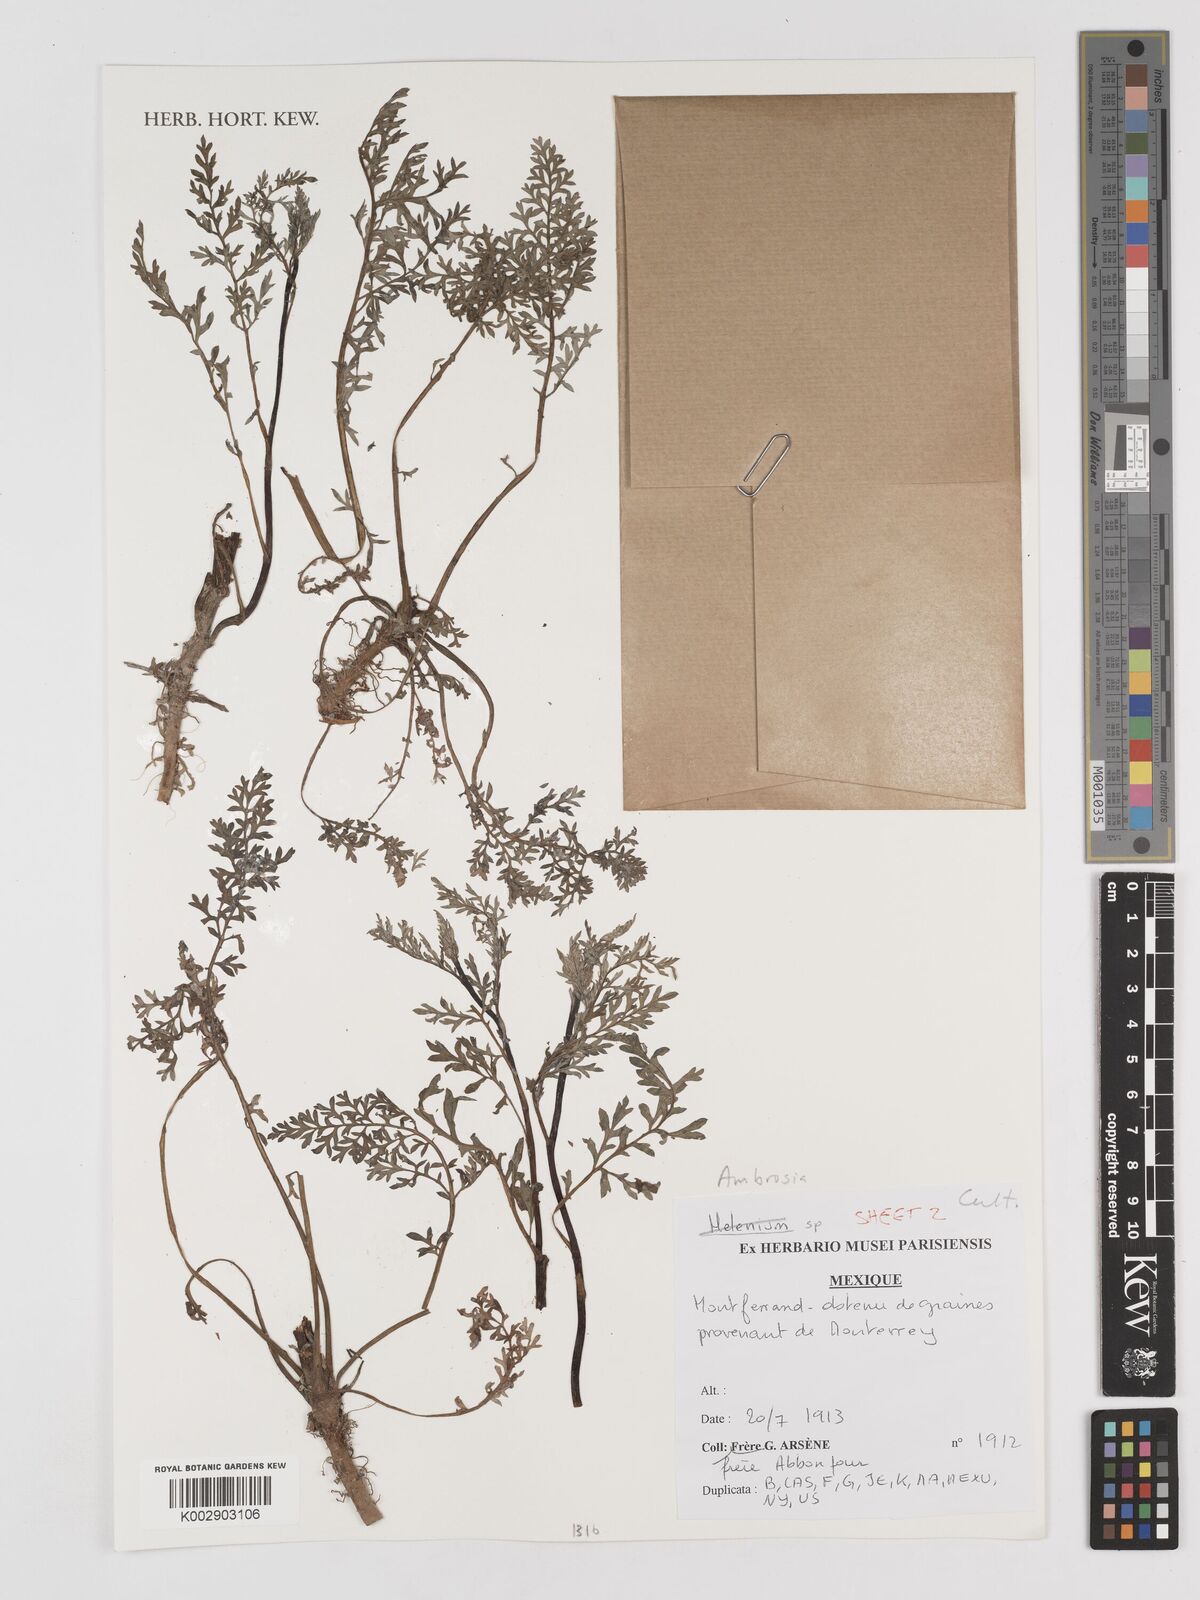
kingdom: Plantae
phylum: Tracheophyta
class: Magnoliopsida
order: Asterales
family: Asteraceae
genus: Ambrosia
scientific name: Ambrosia
